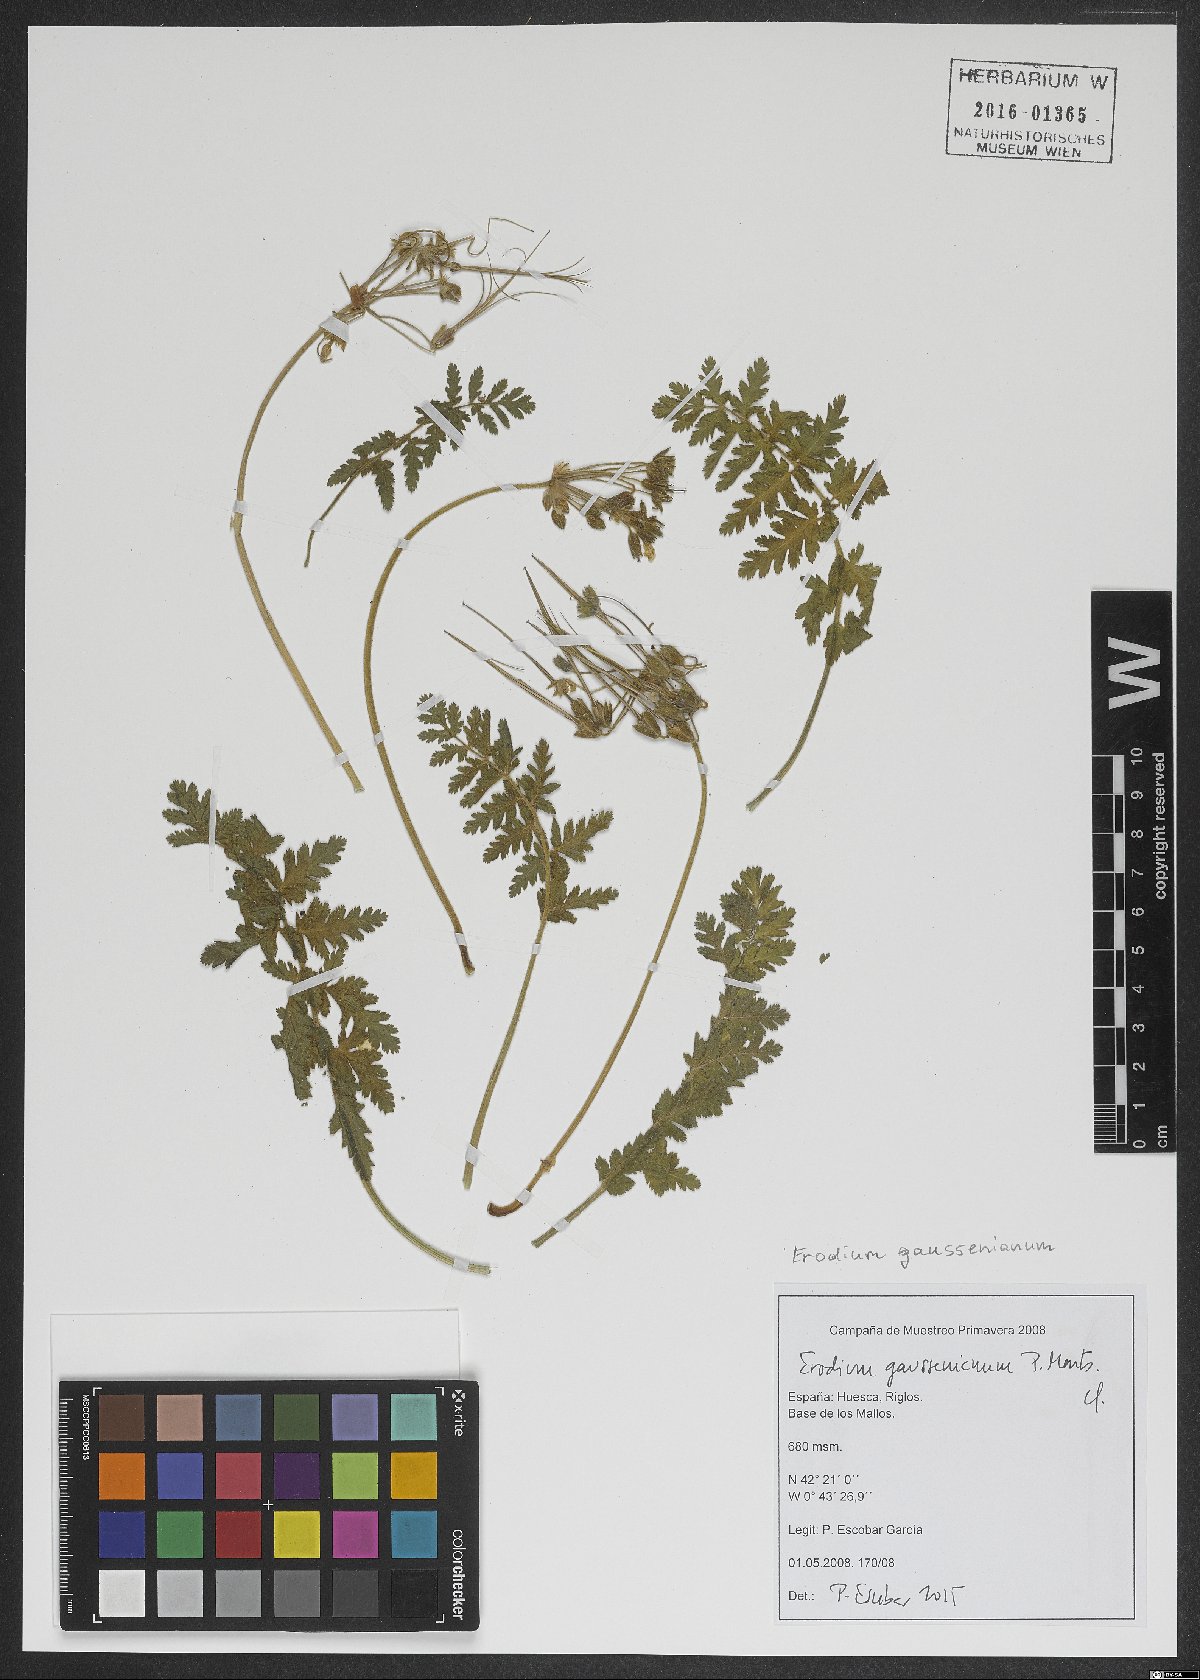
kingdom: Plantae
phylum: Tracheophyta
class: Magnoliopsida
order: Geraniales
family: Geraniaceae
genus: Erodium
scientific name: Erodium tordylioides
